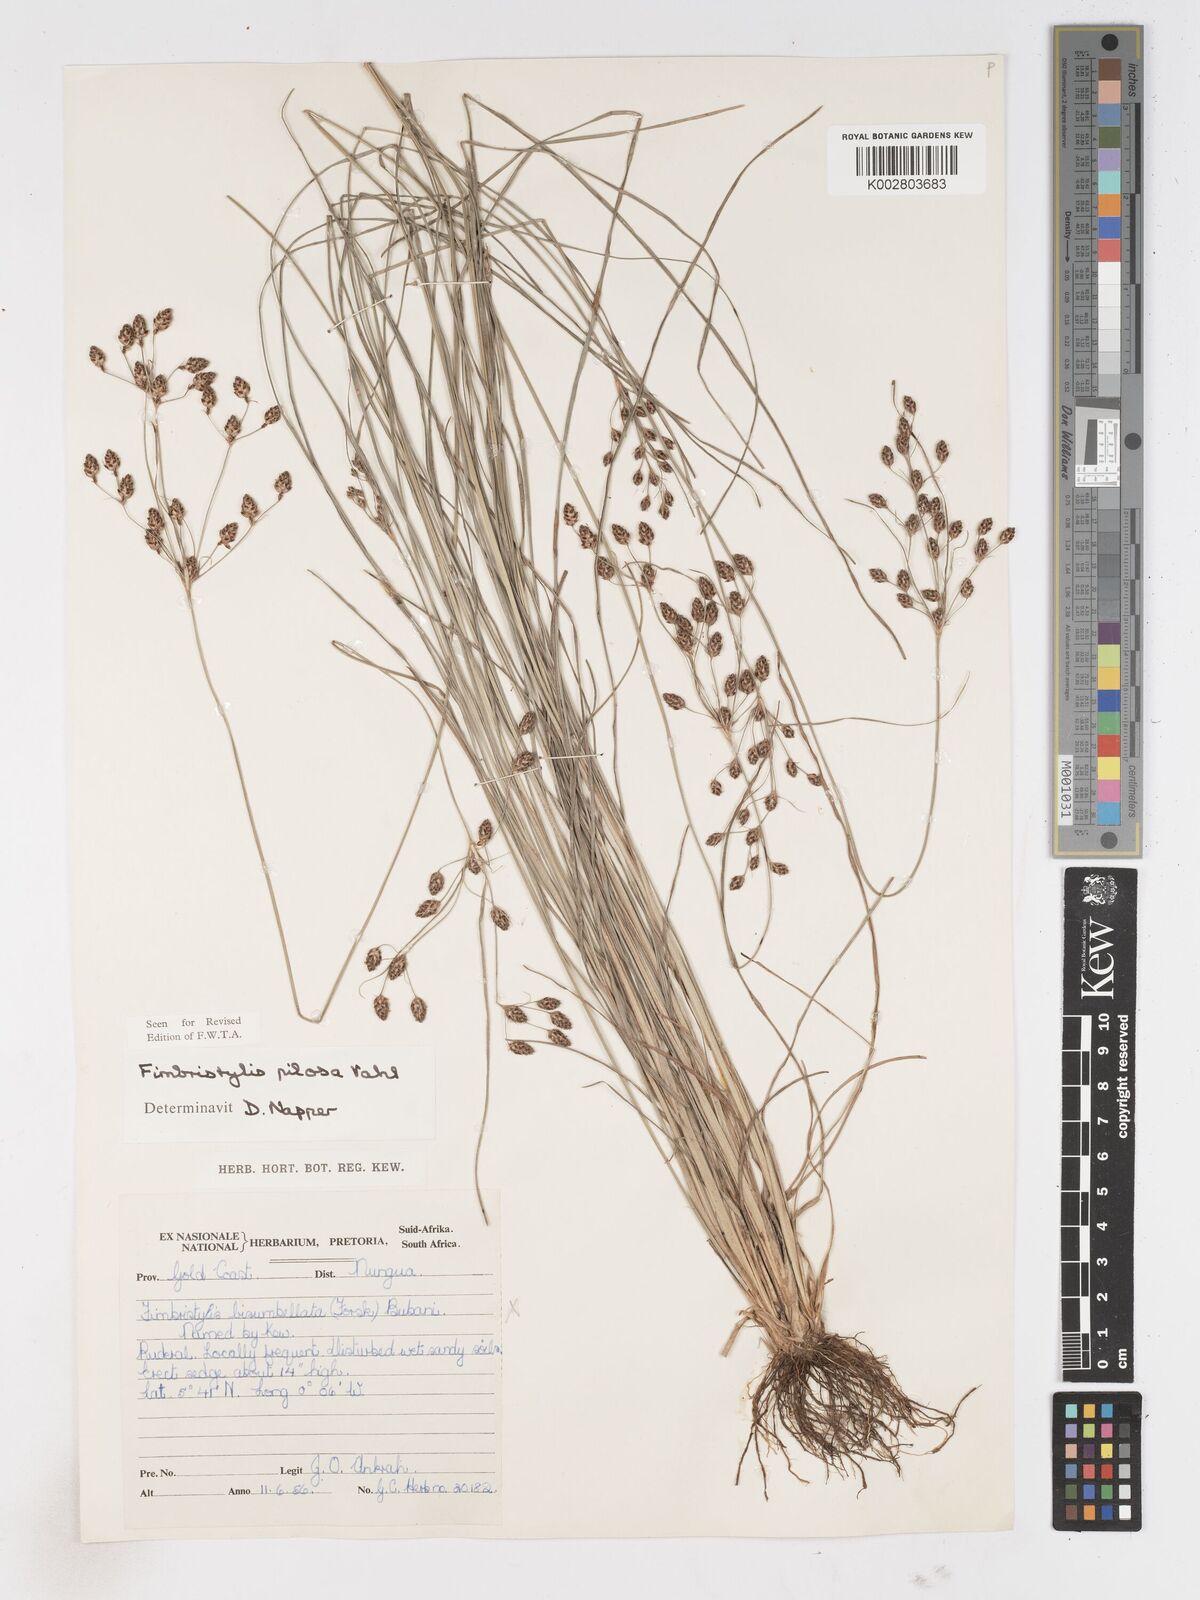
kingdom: Plantae
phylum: Tracheophyta
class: Liliopsida
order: Poales
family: Cyperaceae
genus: Fimbristylis
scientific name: Fimbristylis pilosa
